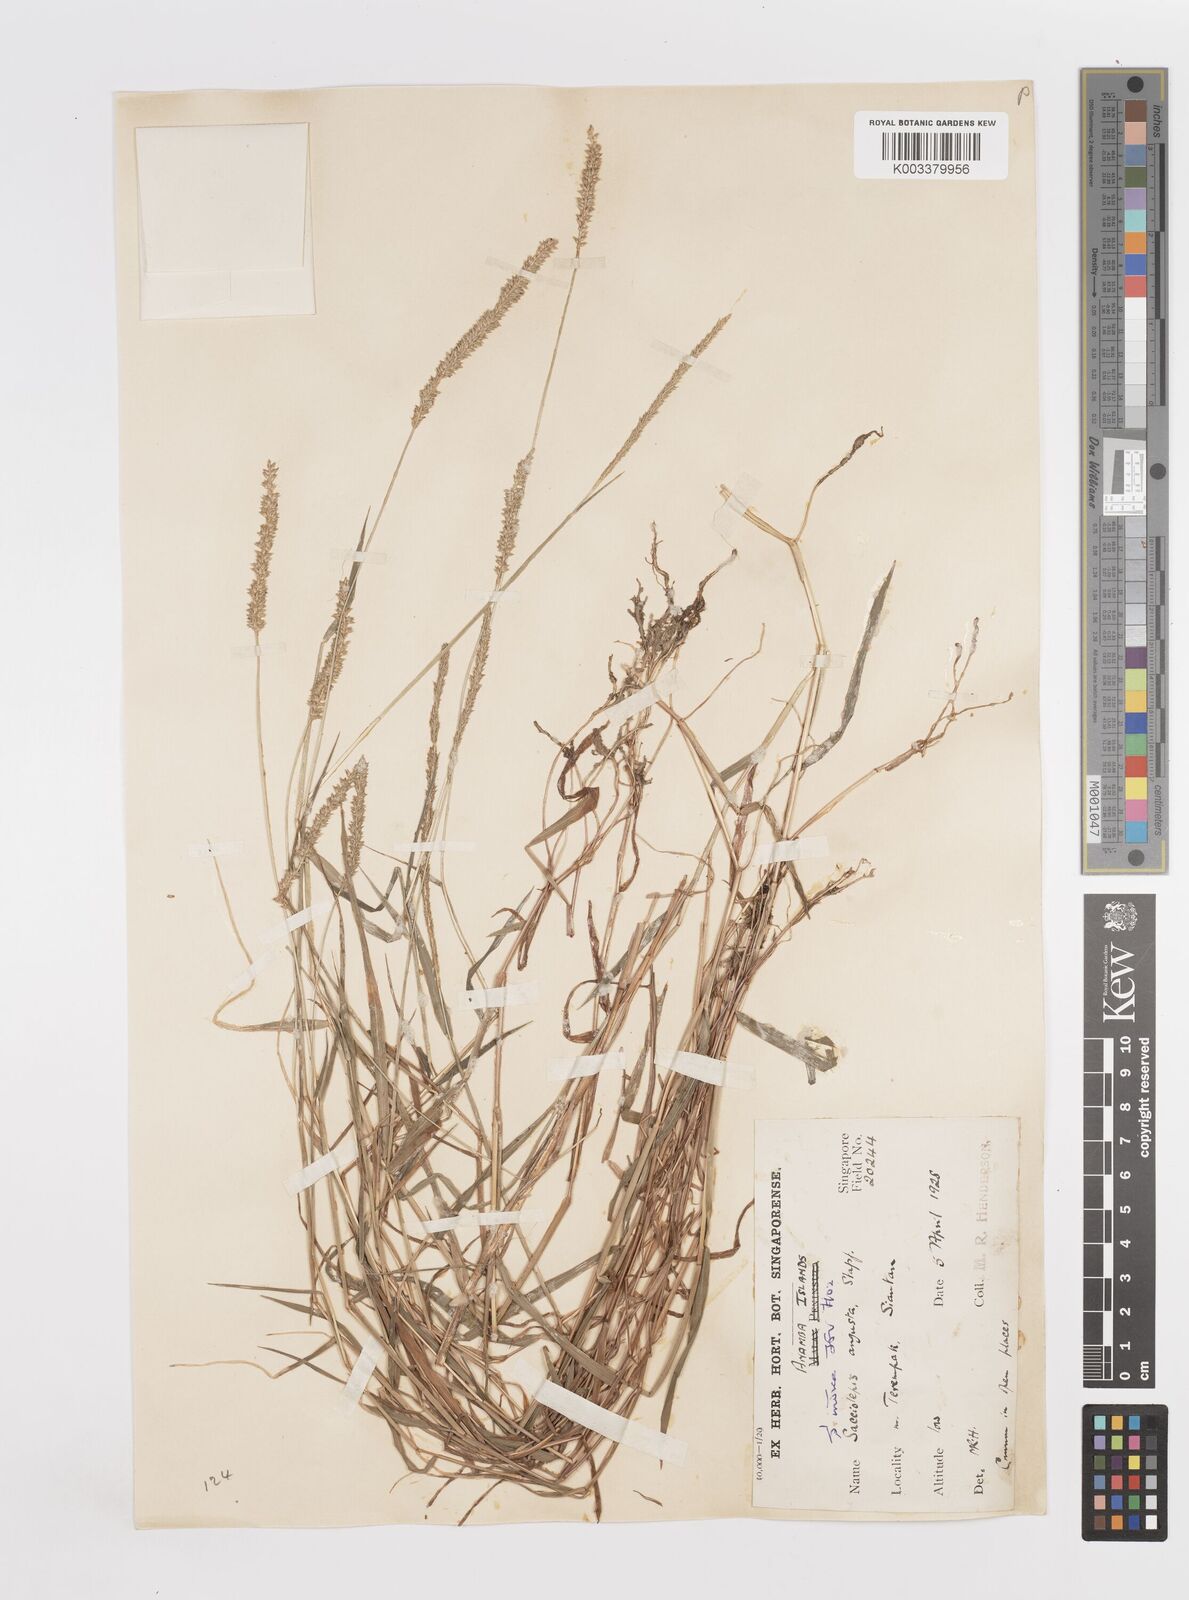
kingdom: Plantae
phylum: Tracheophyta
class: Liliopsida
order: Poales
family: Poaceae
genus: Sacciolepis
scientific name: Sacciolepis indica
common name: Glenwoodgrass
